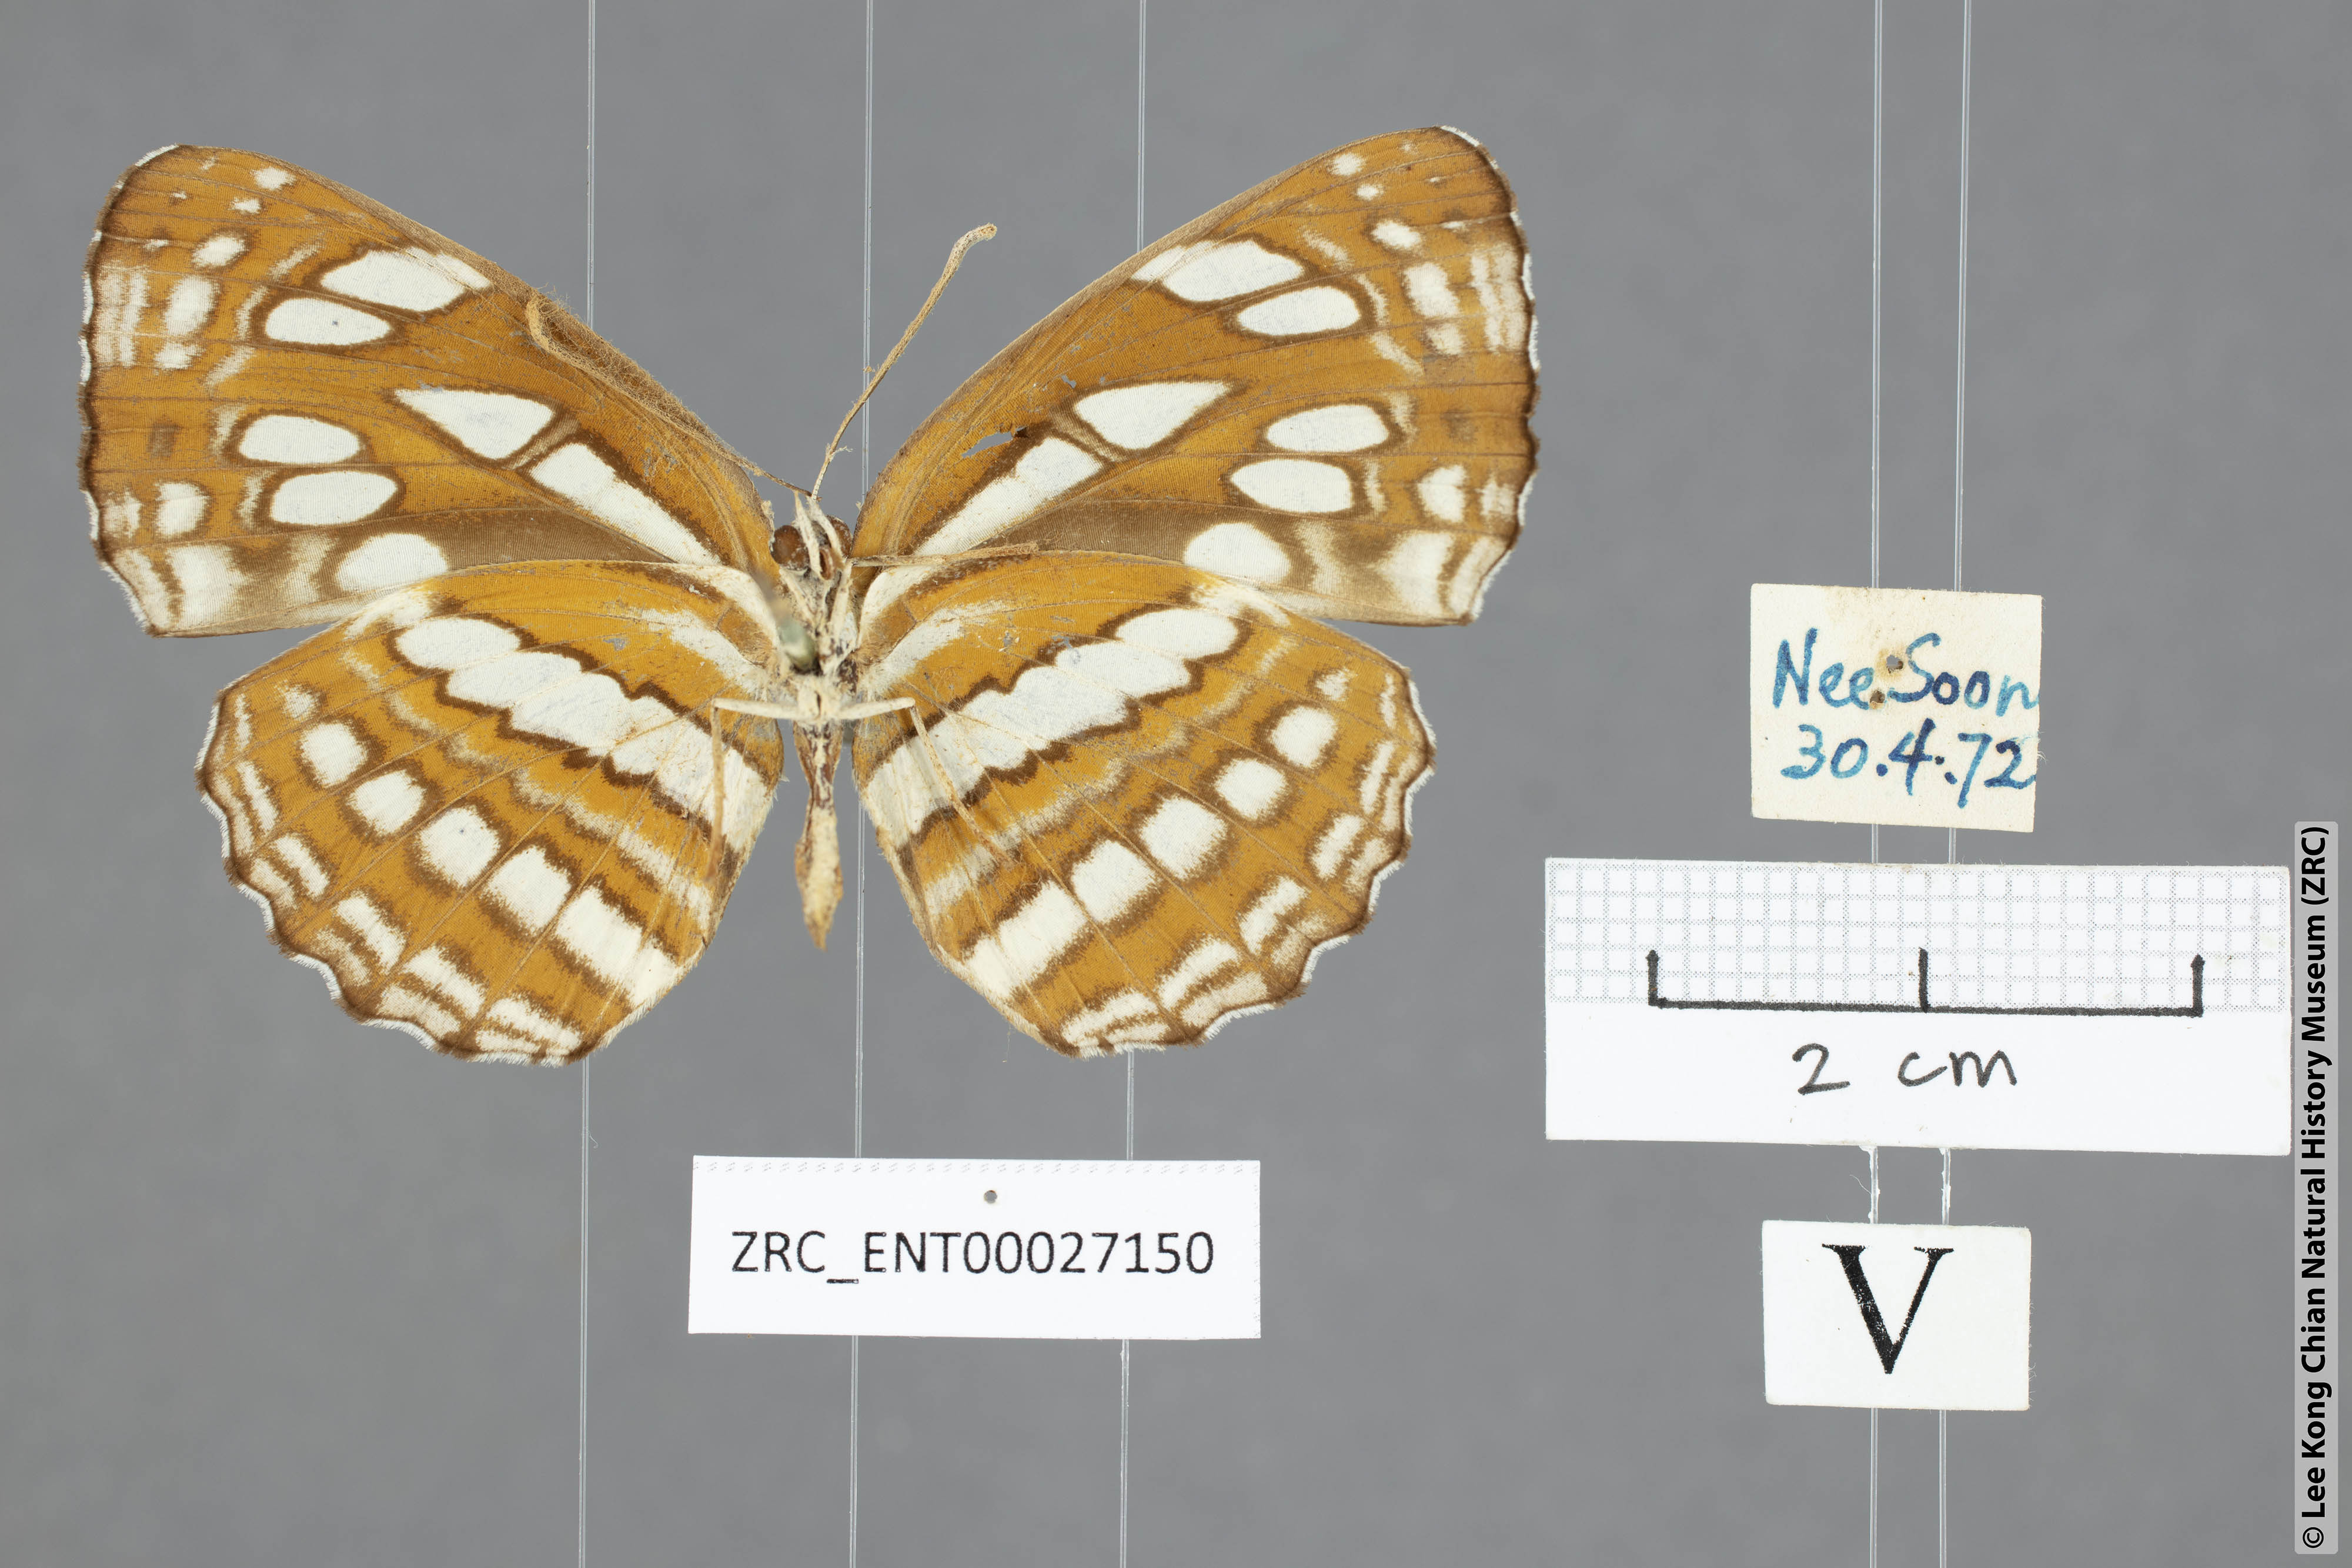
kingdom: Animalia
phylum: Arthropoda
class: Insecta
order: Lepidoptera
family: Nymphalidae
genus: Neptis
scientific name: Neptis hylas
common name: Common sailer
